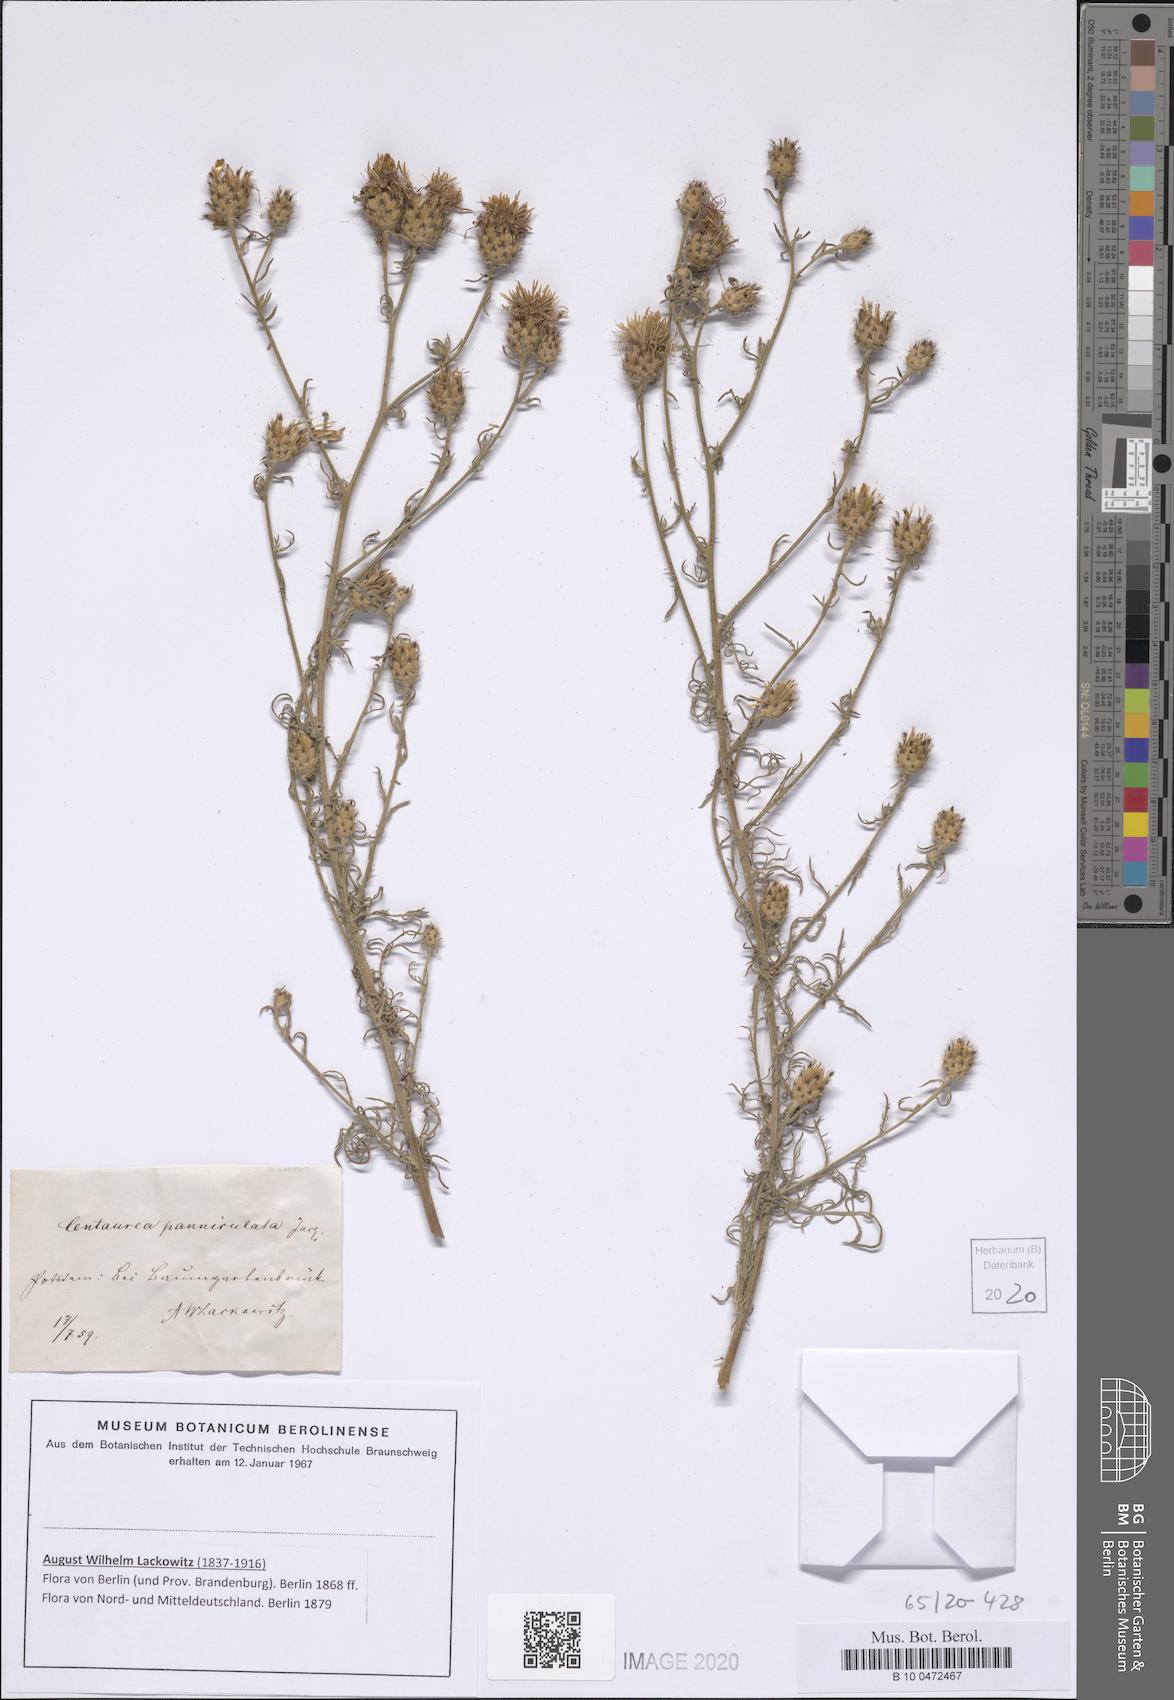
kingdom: Plantae
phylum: Tracheophyta
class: Magnoliopsida
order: Asterales
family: Asteraceae
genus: Centaurea
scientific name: Centaurea paniculata
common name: Jersey knapweed
